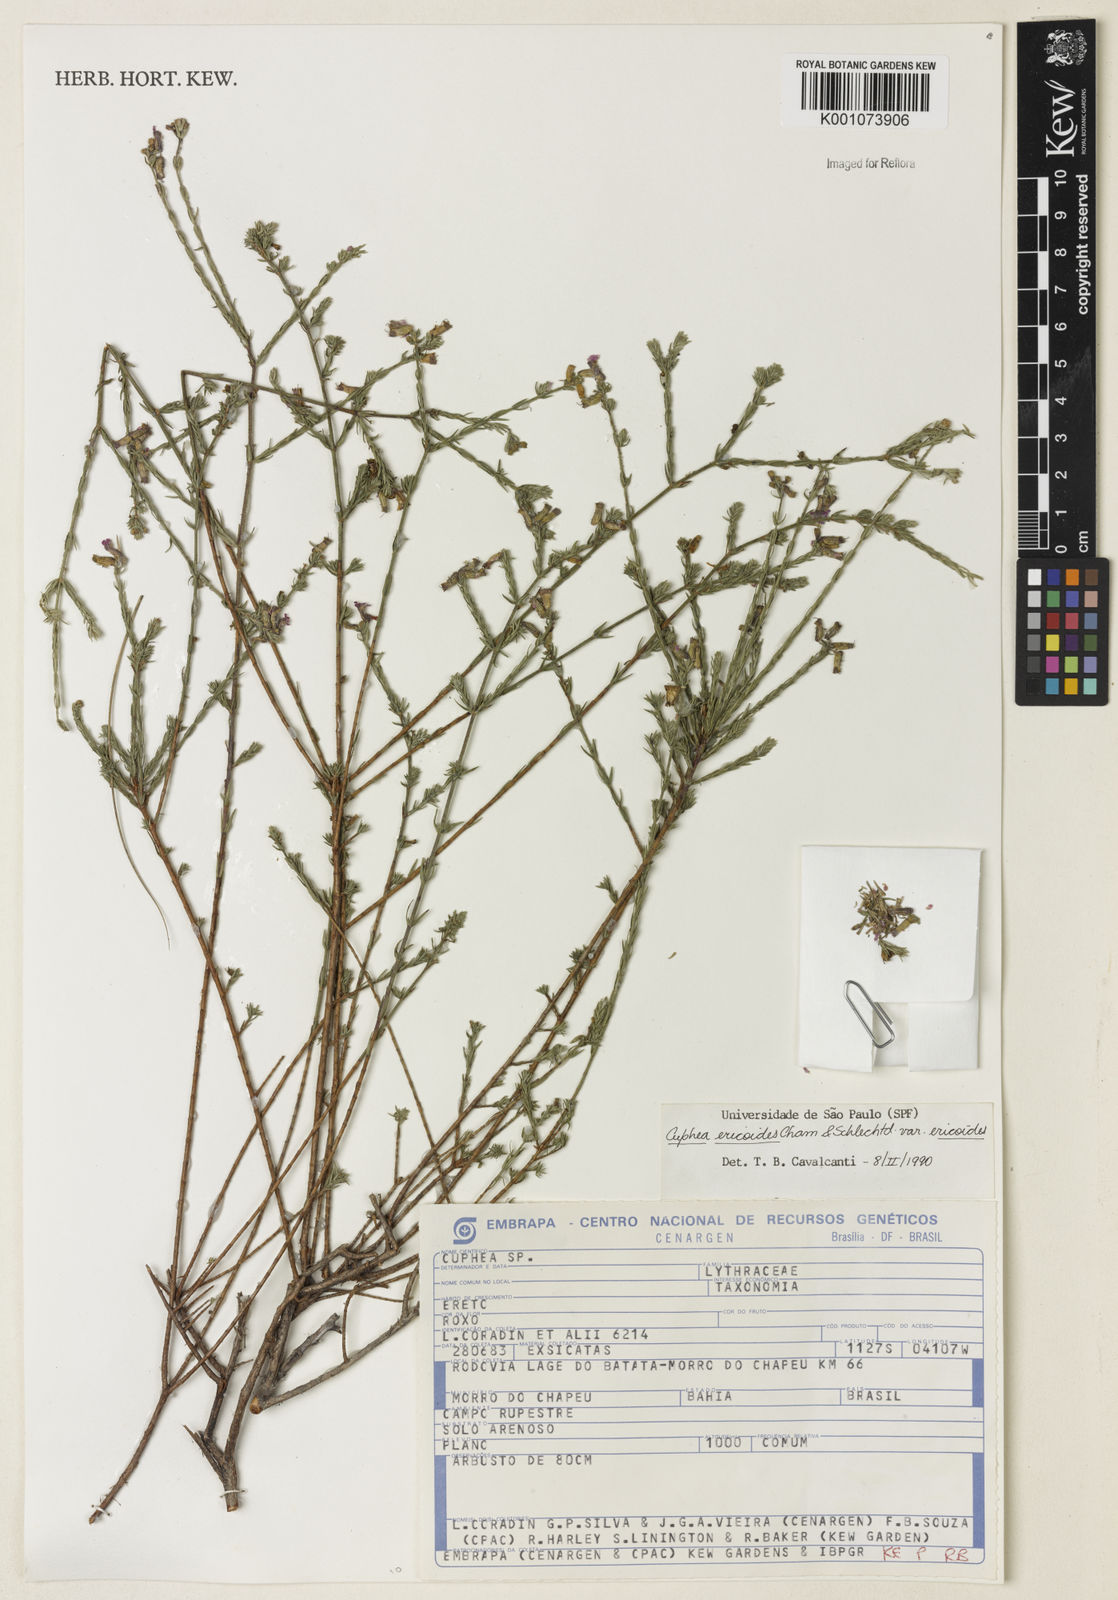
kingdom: Plantae
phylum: Tracheophyta
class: Magnoliopsida
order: Myrtales
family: Lythraceae
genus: Cuphea
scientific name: Cuphea ericoides
